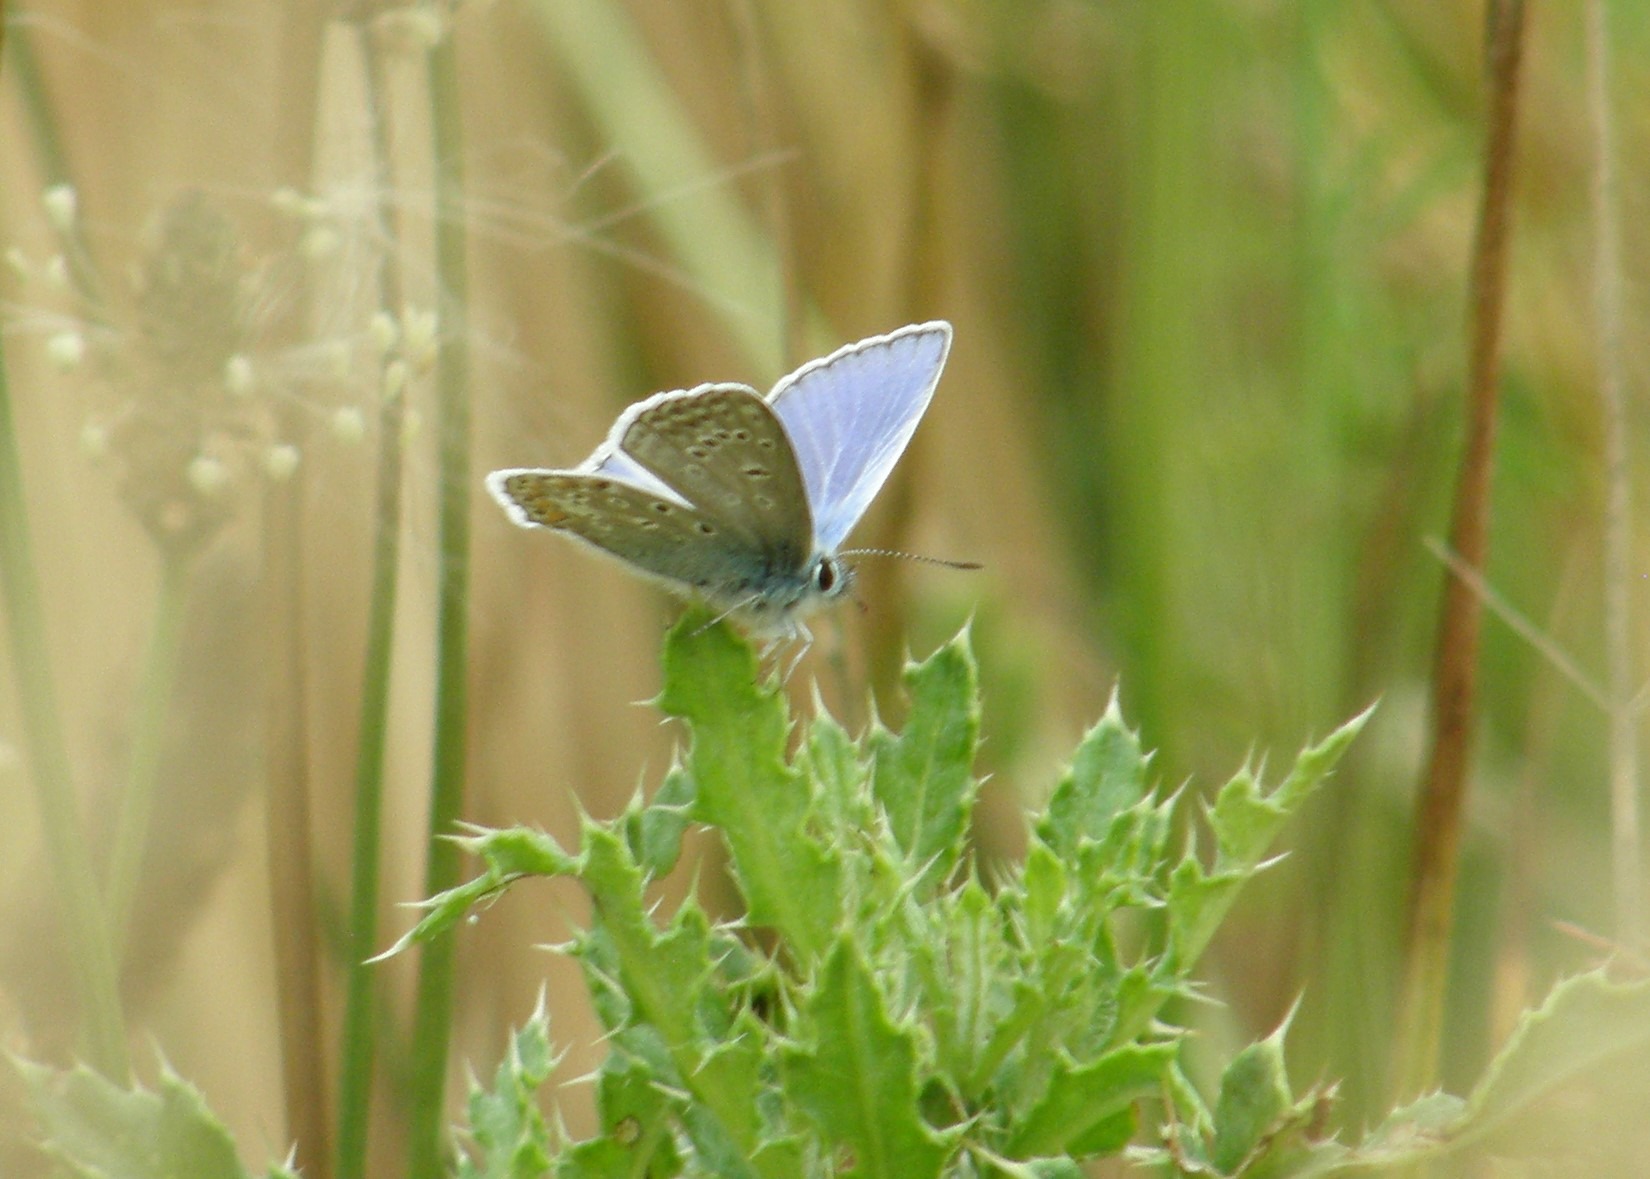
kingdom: Animalia
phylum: Arthropoda
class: Insecta
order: Lepidoptera
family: Lycaenidae
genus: Polyommatus
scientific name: Polyommatus icarus
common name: Almindelig blåfugl
